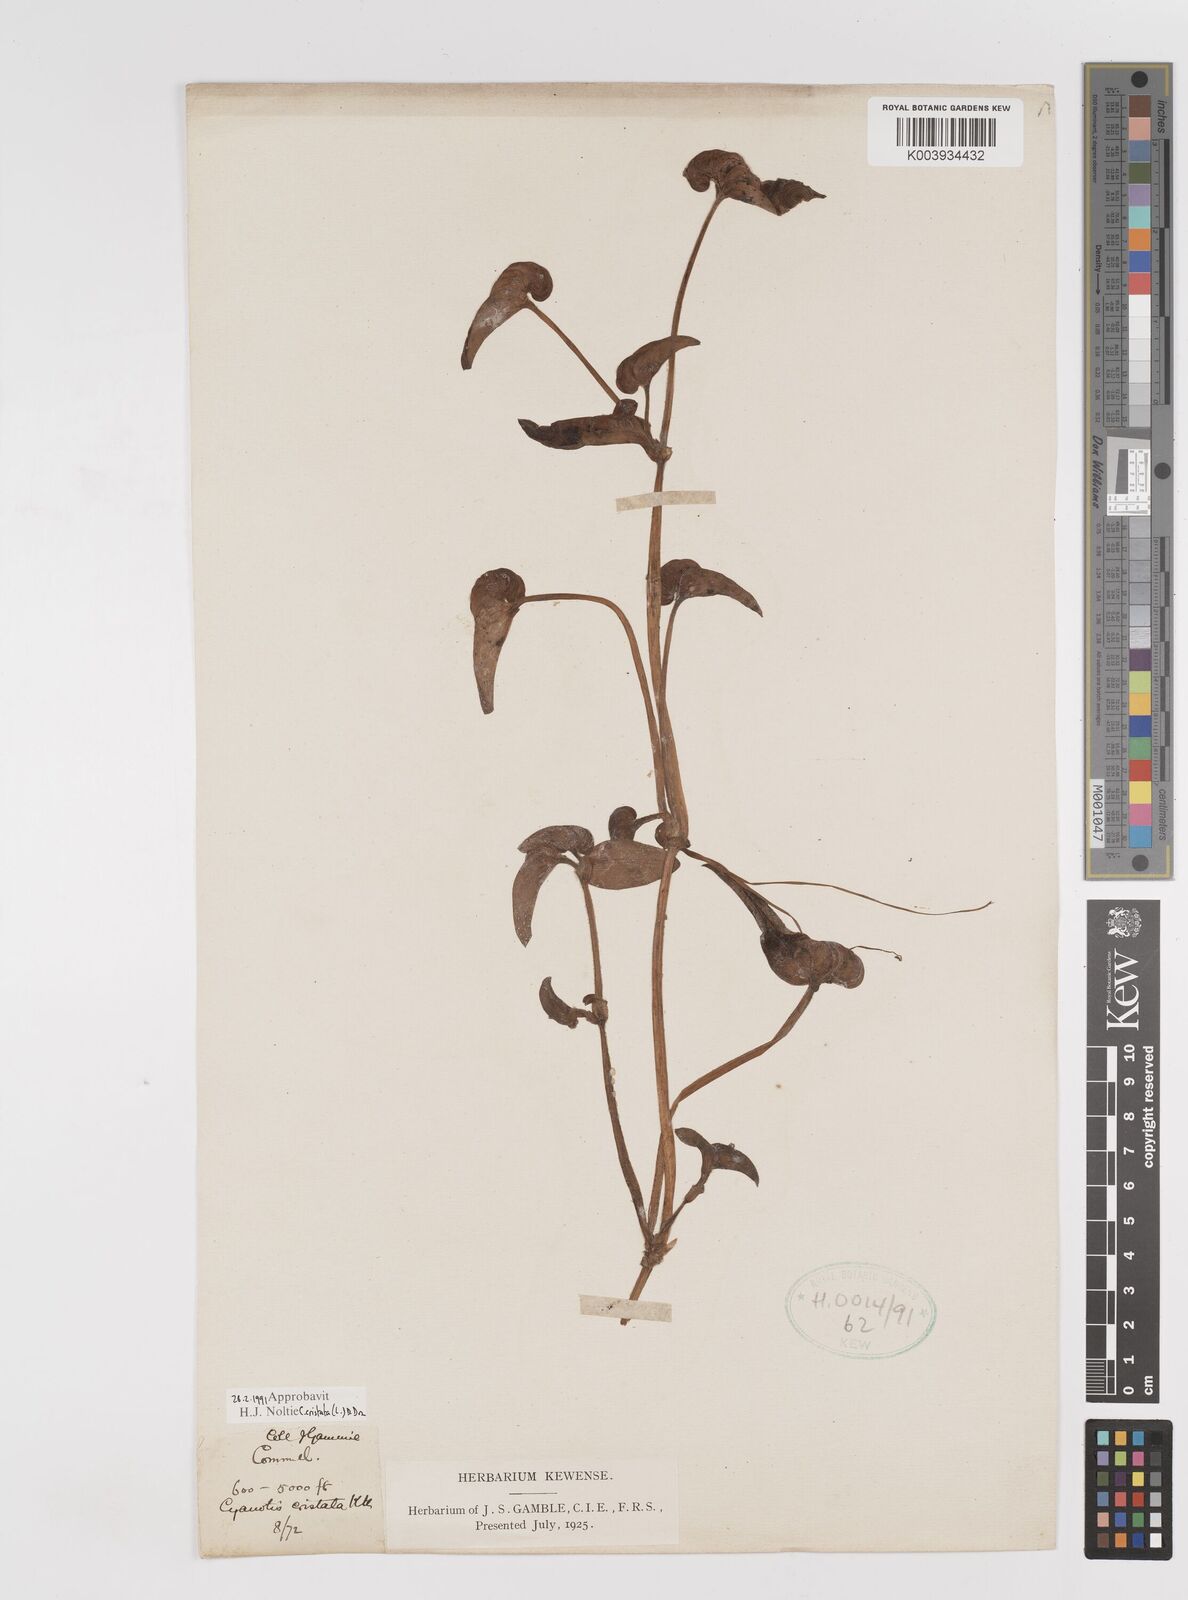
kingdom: Plantae
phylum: Tracheophyta
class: Liliopsida
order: Commelinales
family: Commelinaceae
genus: Cyanotis
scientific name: Cyanotis cristata
